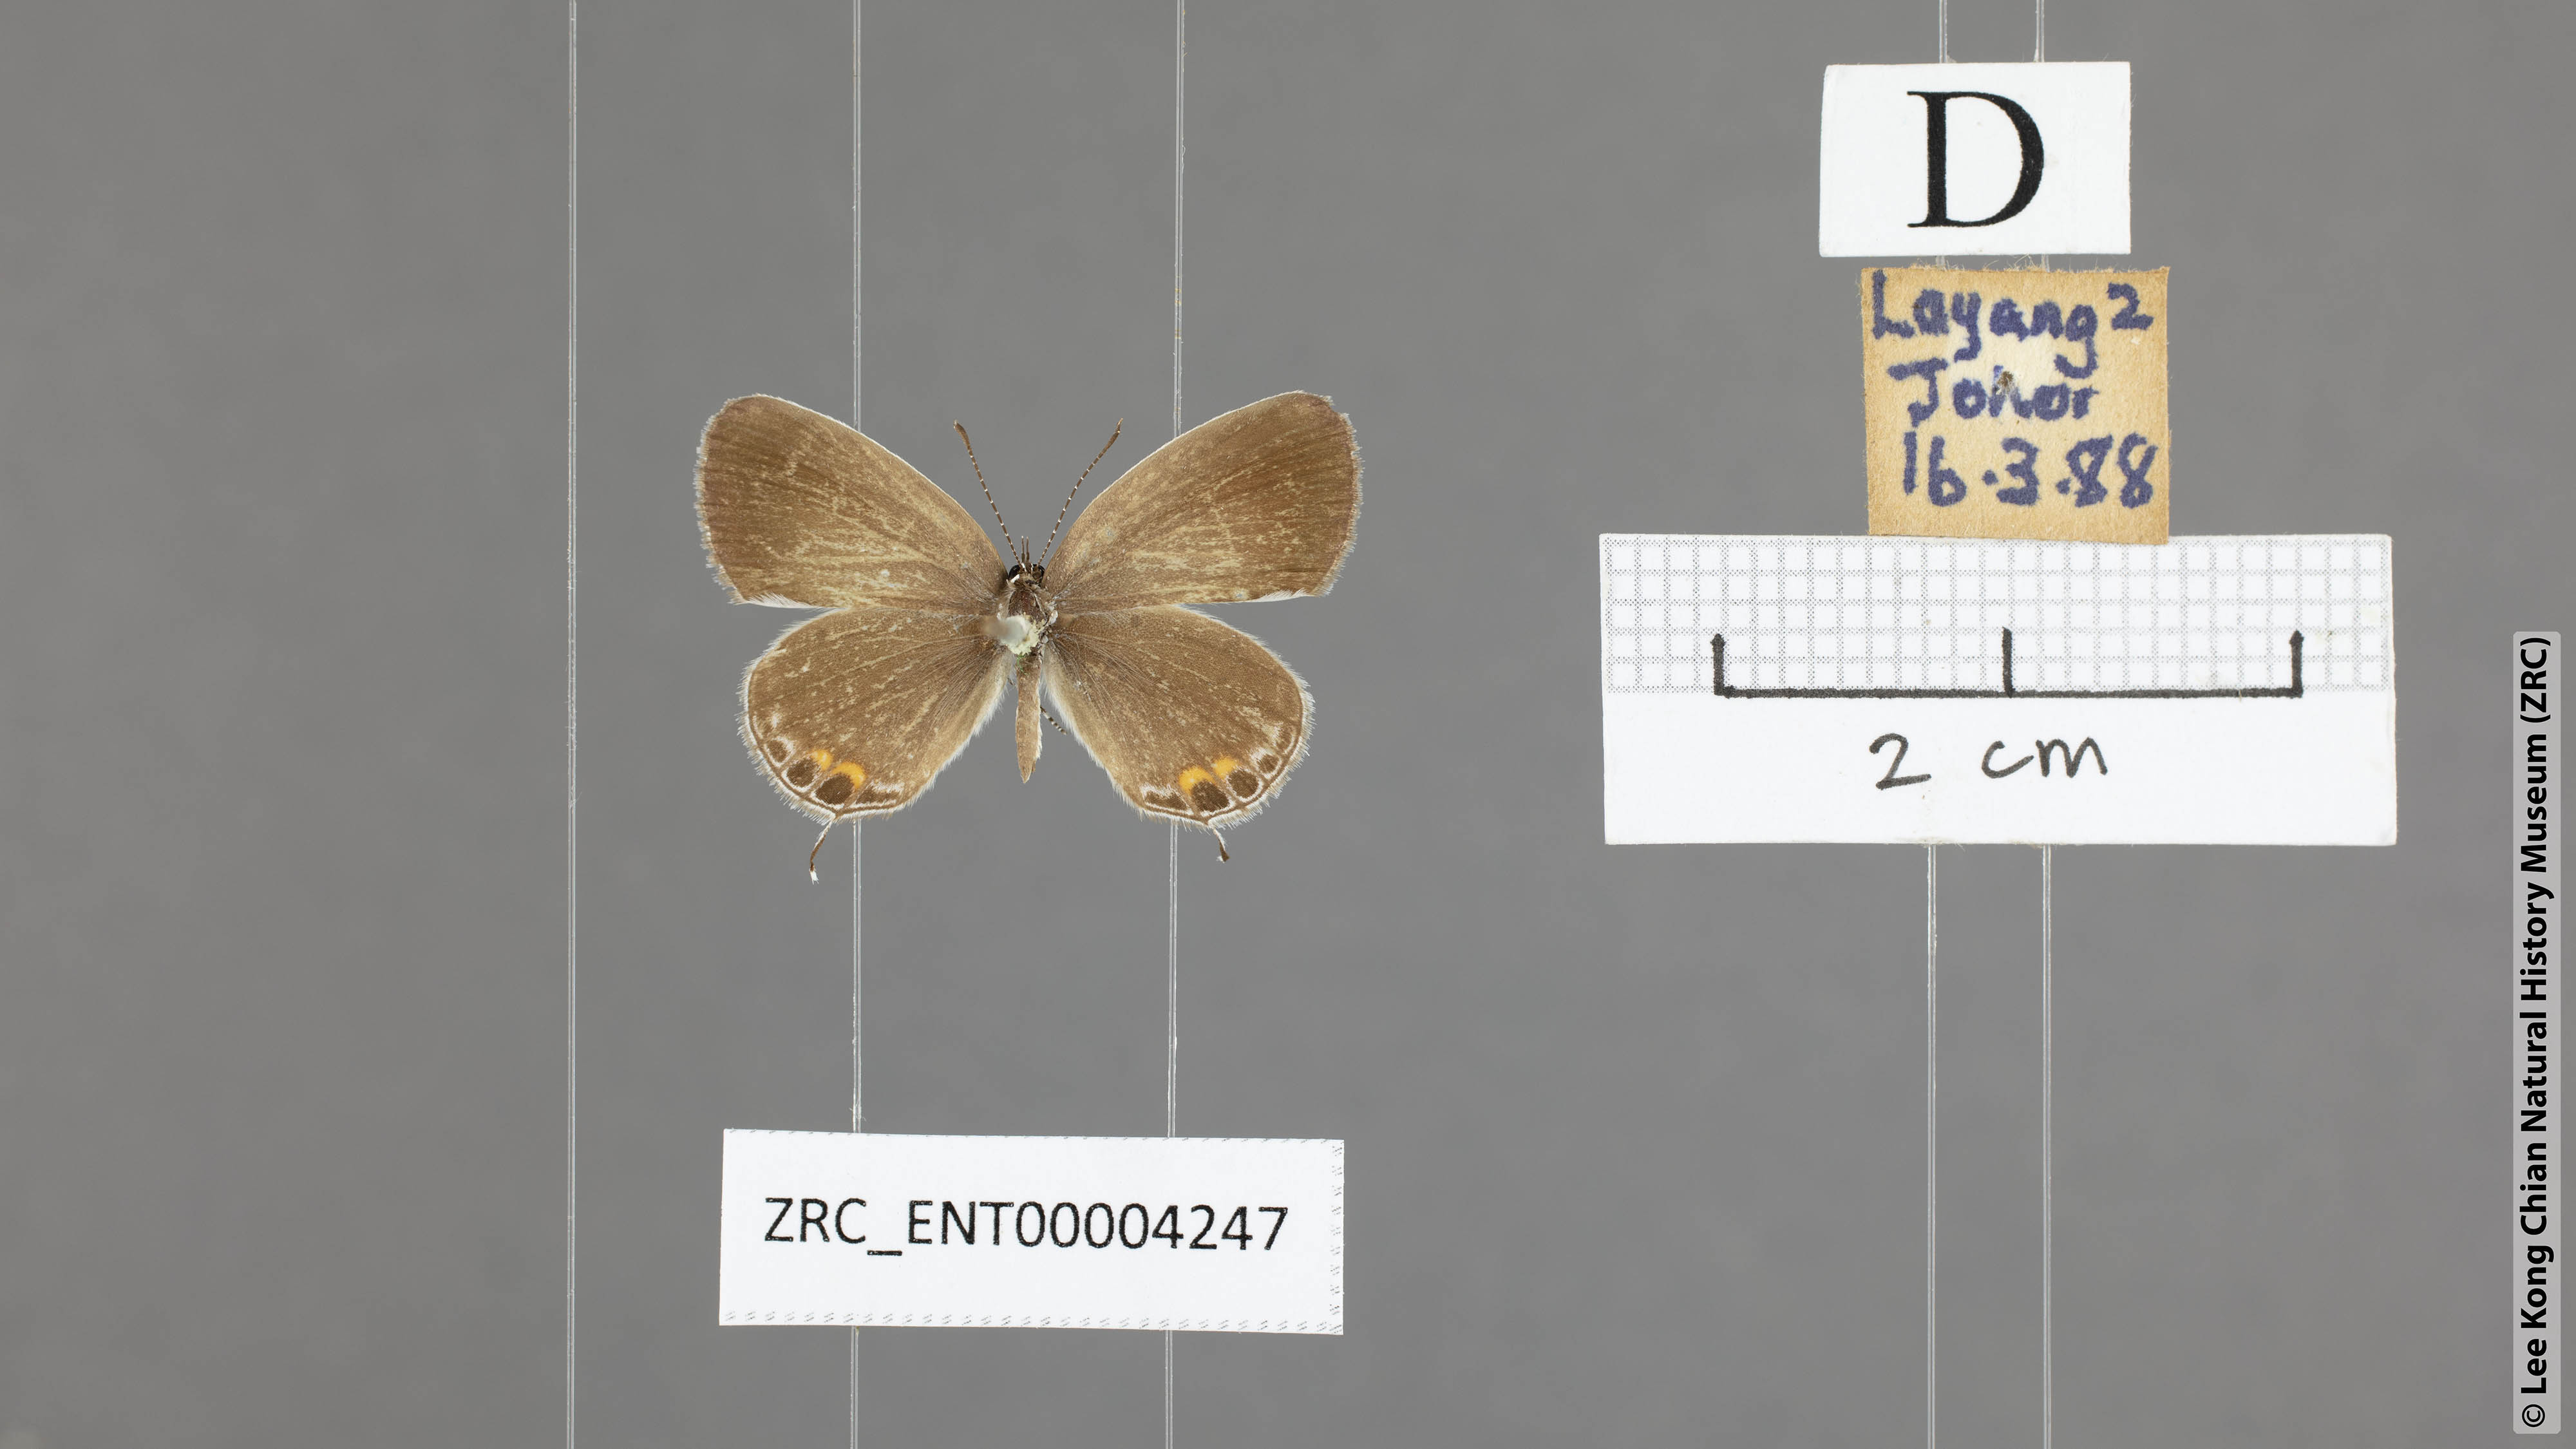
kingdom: Animalia
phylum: Arthropoda
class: Insecta
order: Lepidoptera
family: Lycaenidae
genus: Everes
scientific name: Everes lacturnus
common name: Orange-tipped pea-blue
